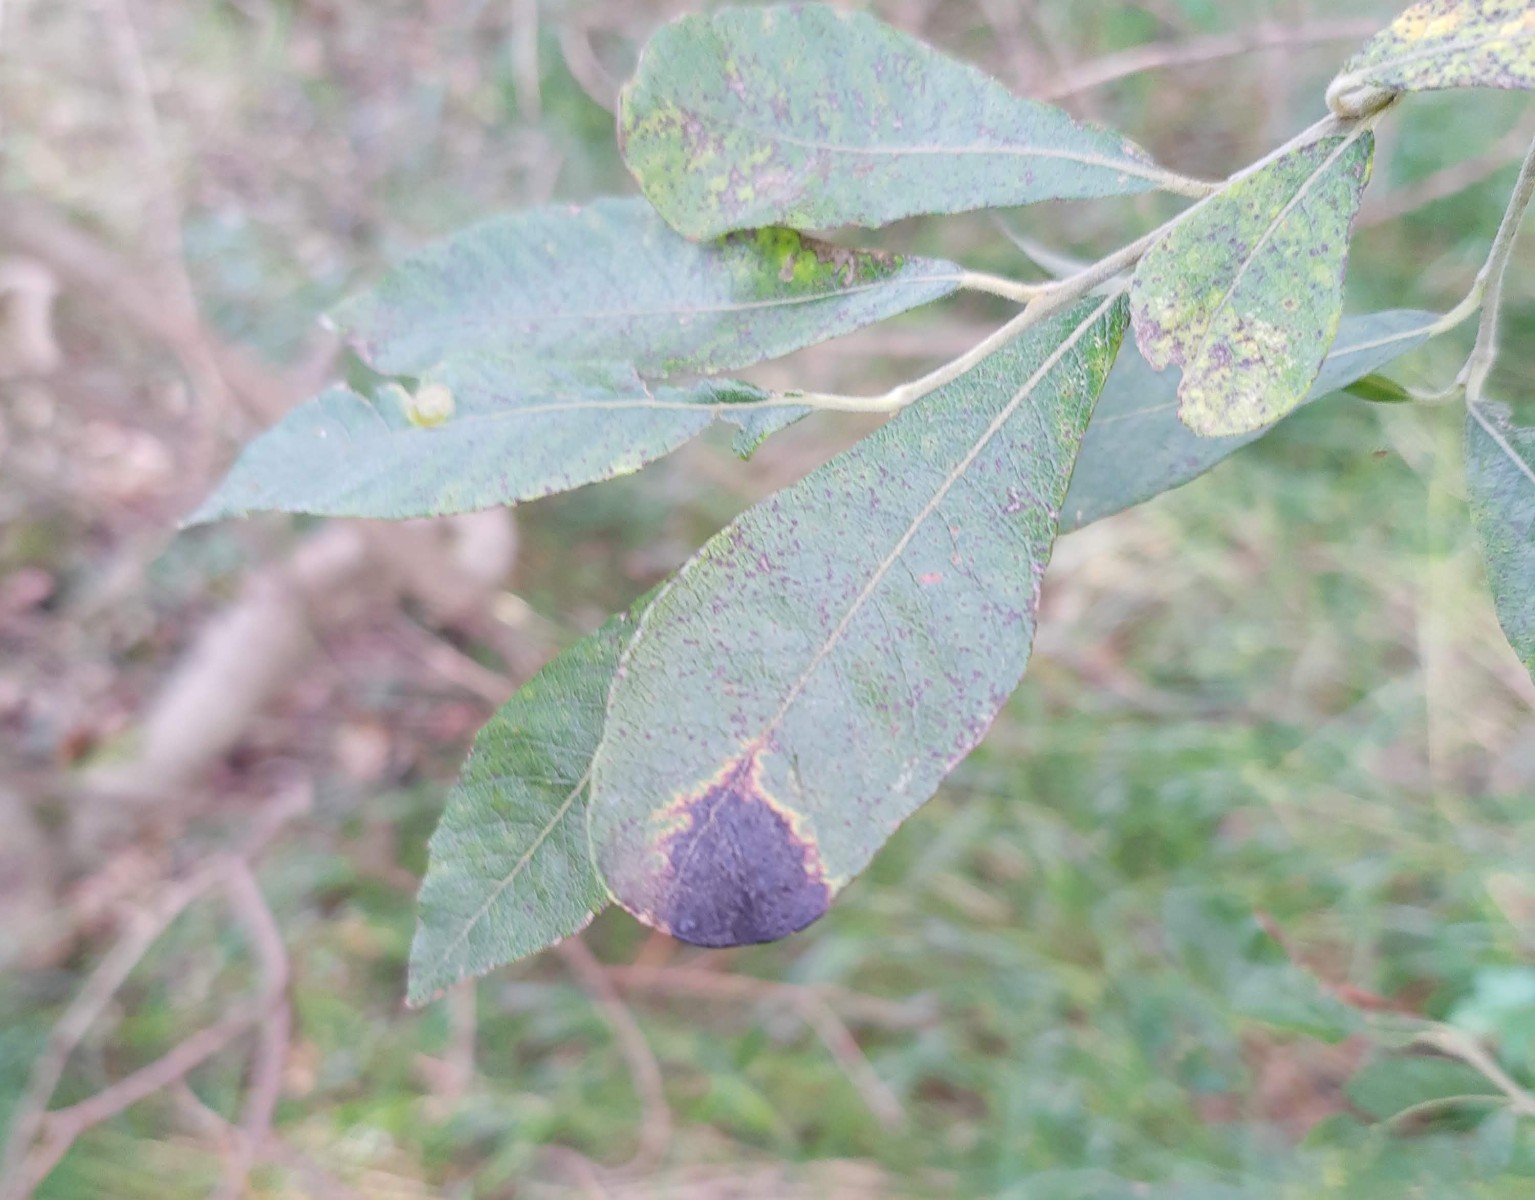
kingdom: Fungi
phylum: Ascomycota
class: Leotiomycetes
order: Rhytismatales
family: Rhytismataceae
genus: Rhytisma
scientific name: Rhytisma salicinum
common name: pile-rynkeplet
